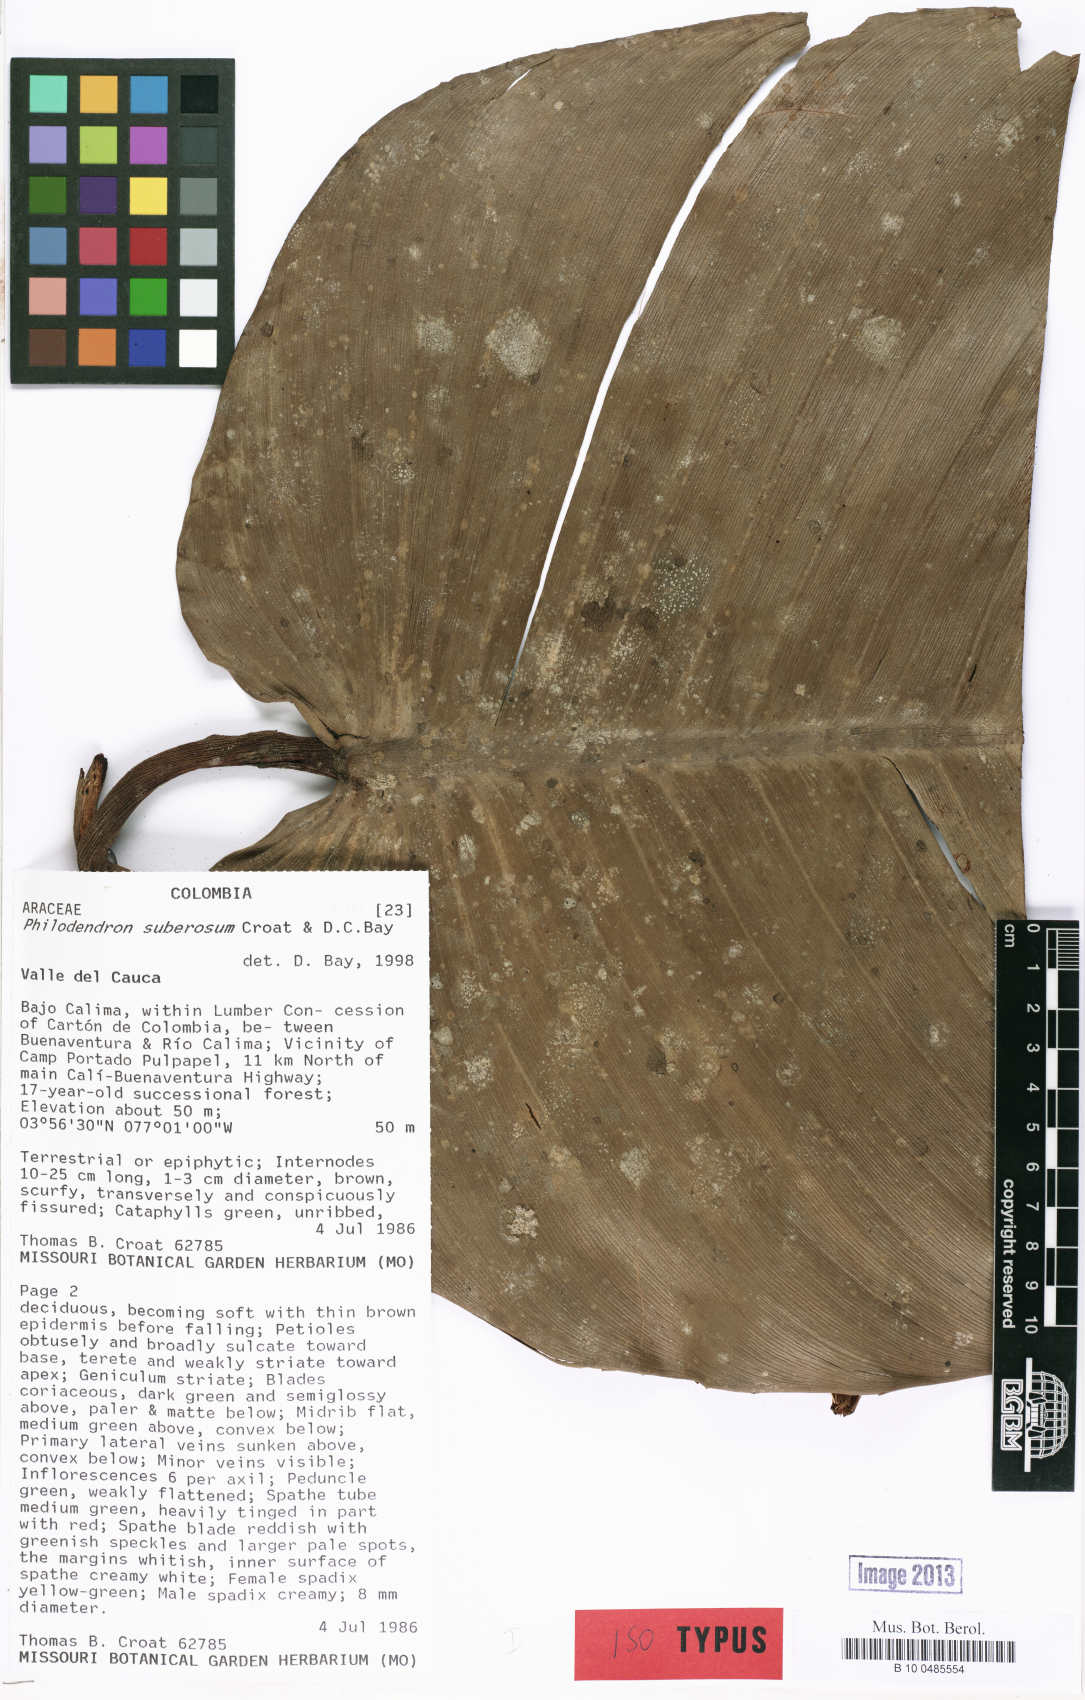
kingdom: Plantae
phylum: Tracheophyta
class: Liliopsida
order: Alismatales
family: Araceae
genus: Philodendron
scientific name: Philodendron suberosum
